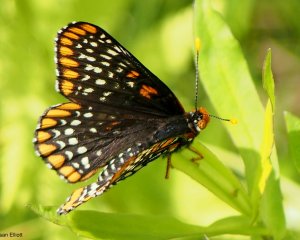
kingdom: Animalia
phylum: Arthropoda
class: Insecta
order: Lepidoptera
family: Nymphalidae
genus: Euphydryas
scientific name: Euphydryas phaeton
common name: Baltimore Checkerspot
